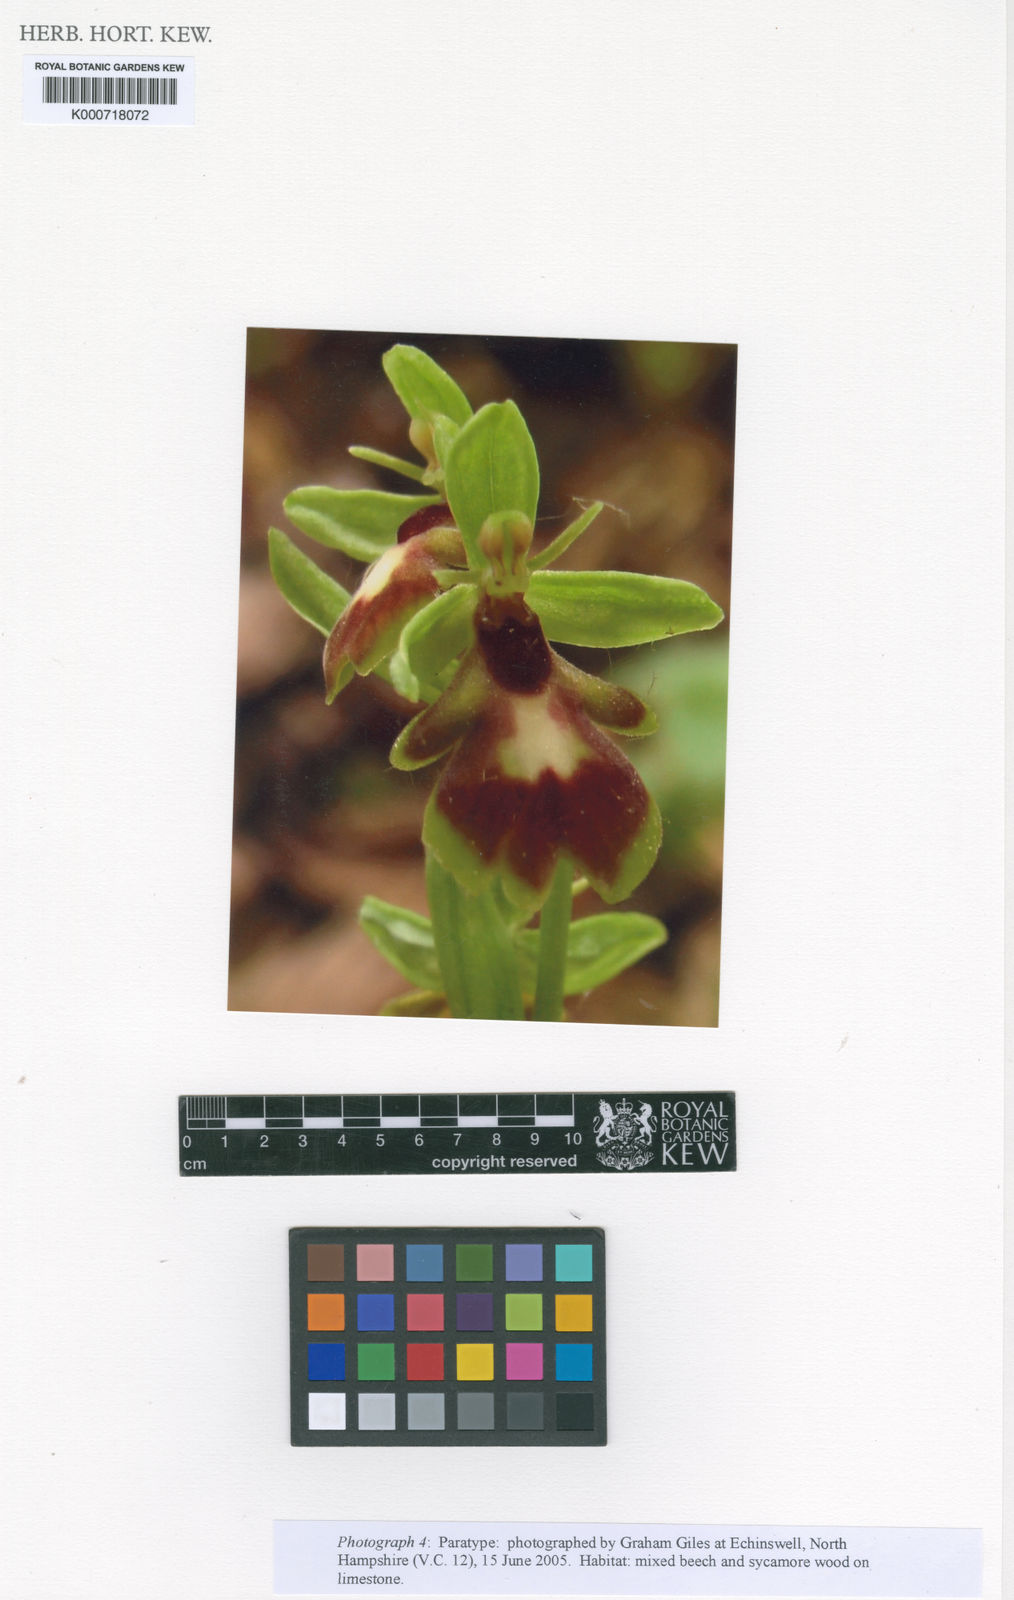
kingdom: Plantae
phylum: Tracheophyta
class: Liliopsida
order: Asparagales
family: Orchidaceae
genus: Ophrys
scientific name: Ophrys insectifera
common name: Fly orchid
